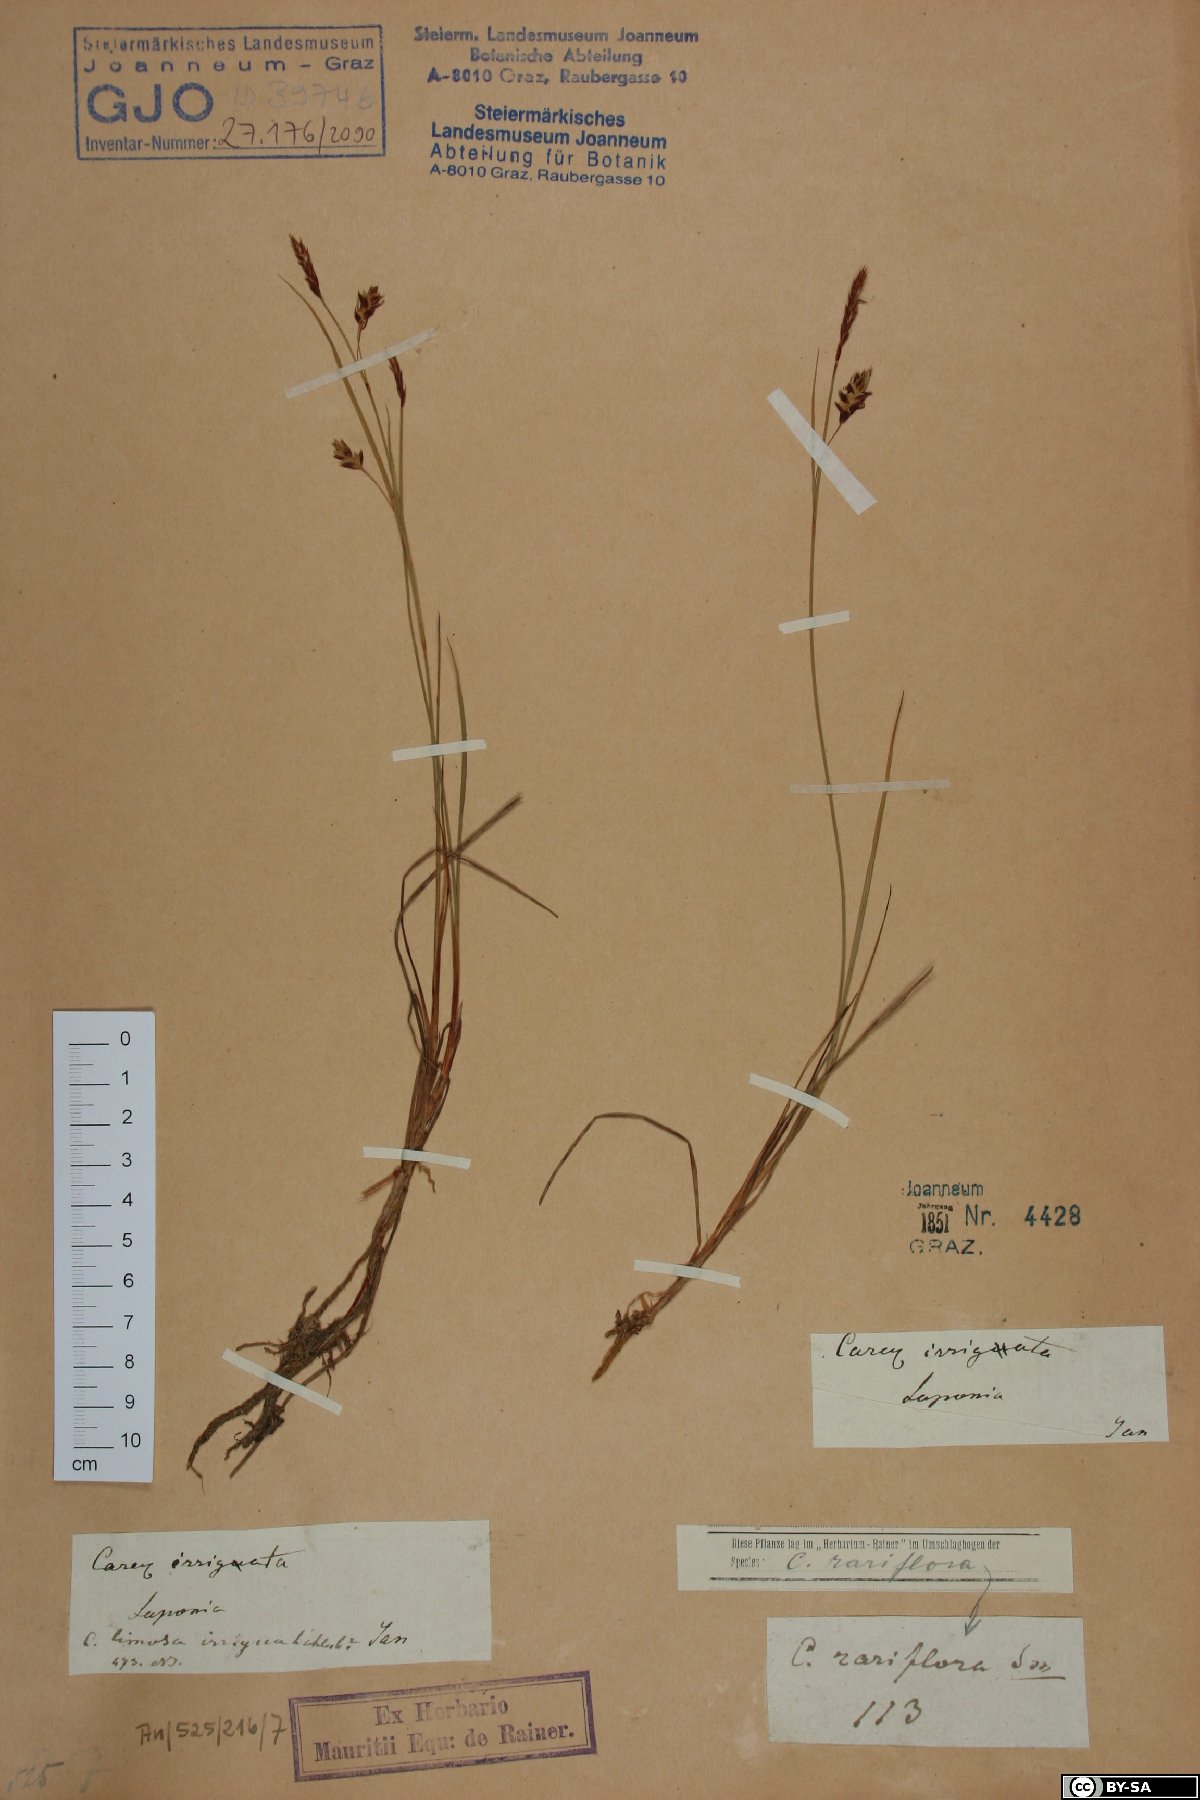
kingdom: Plantae
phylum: Tracheophyta
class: Liliopsida
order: Poales
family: Cyperaceae
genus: Carex
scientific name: Carex magellanica
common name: Bog sedge
